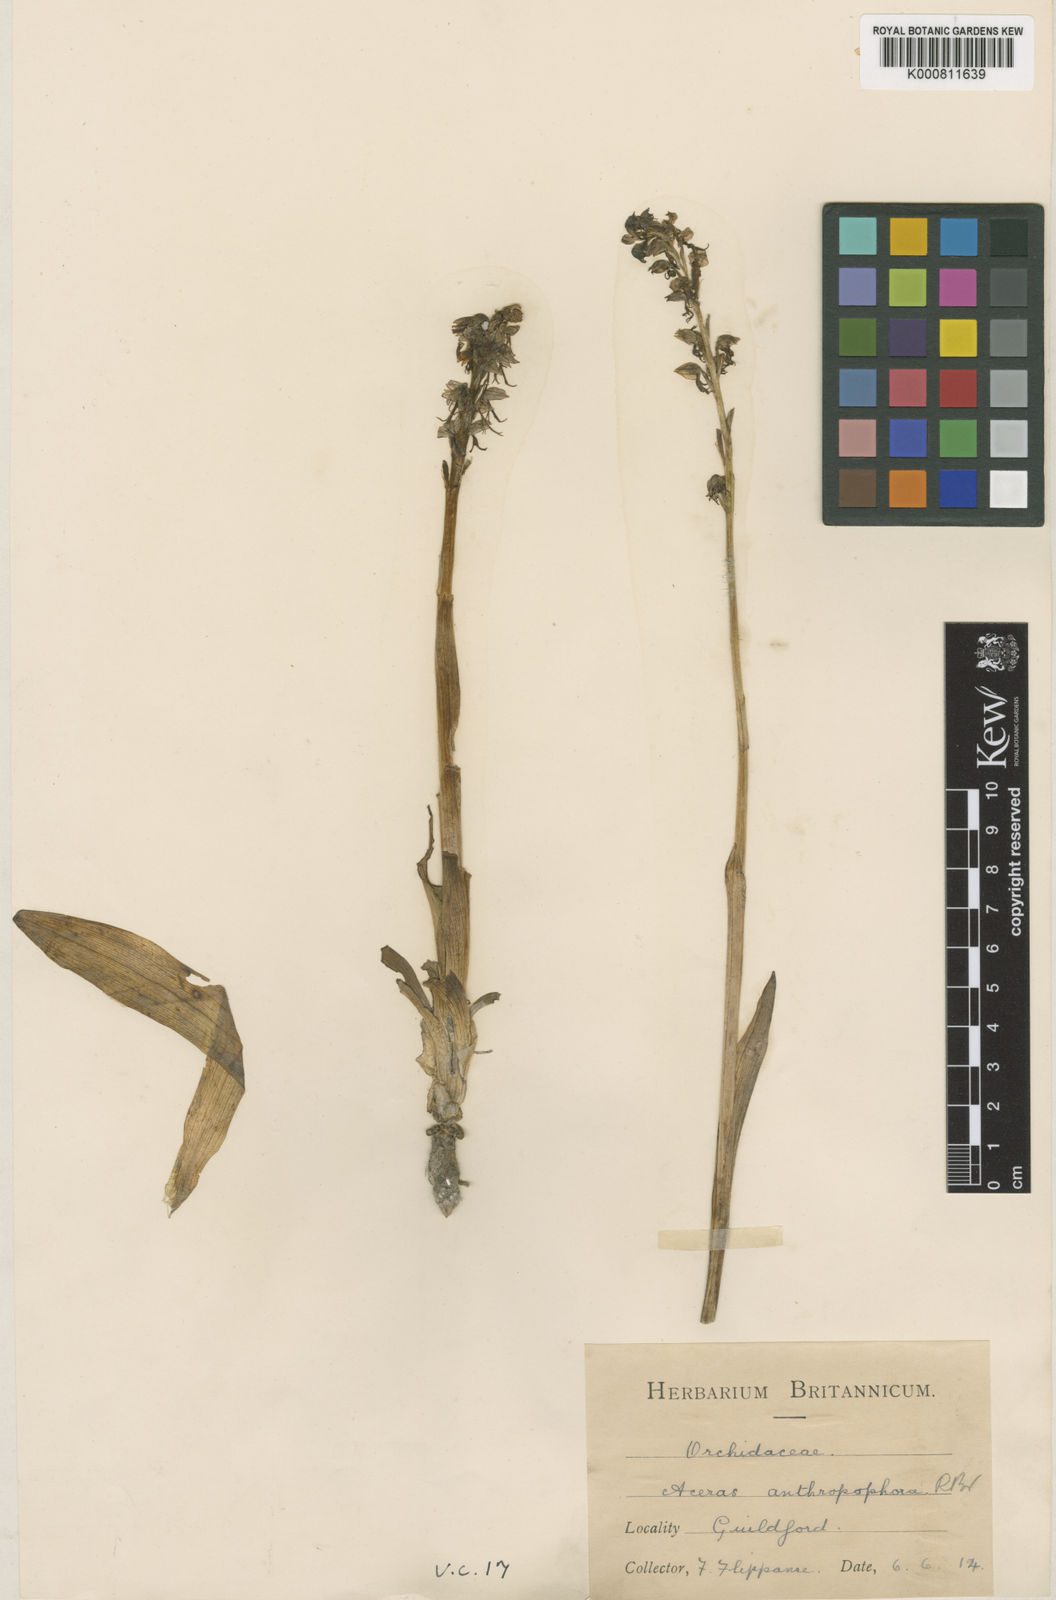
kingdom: Plantae
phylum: Tracheophyta
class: Liliopsida
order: Asparagales
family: Orchidaceae
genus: Orchis
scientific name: Orchis
